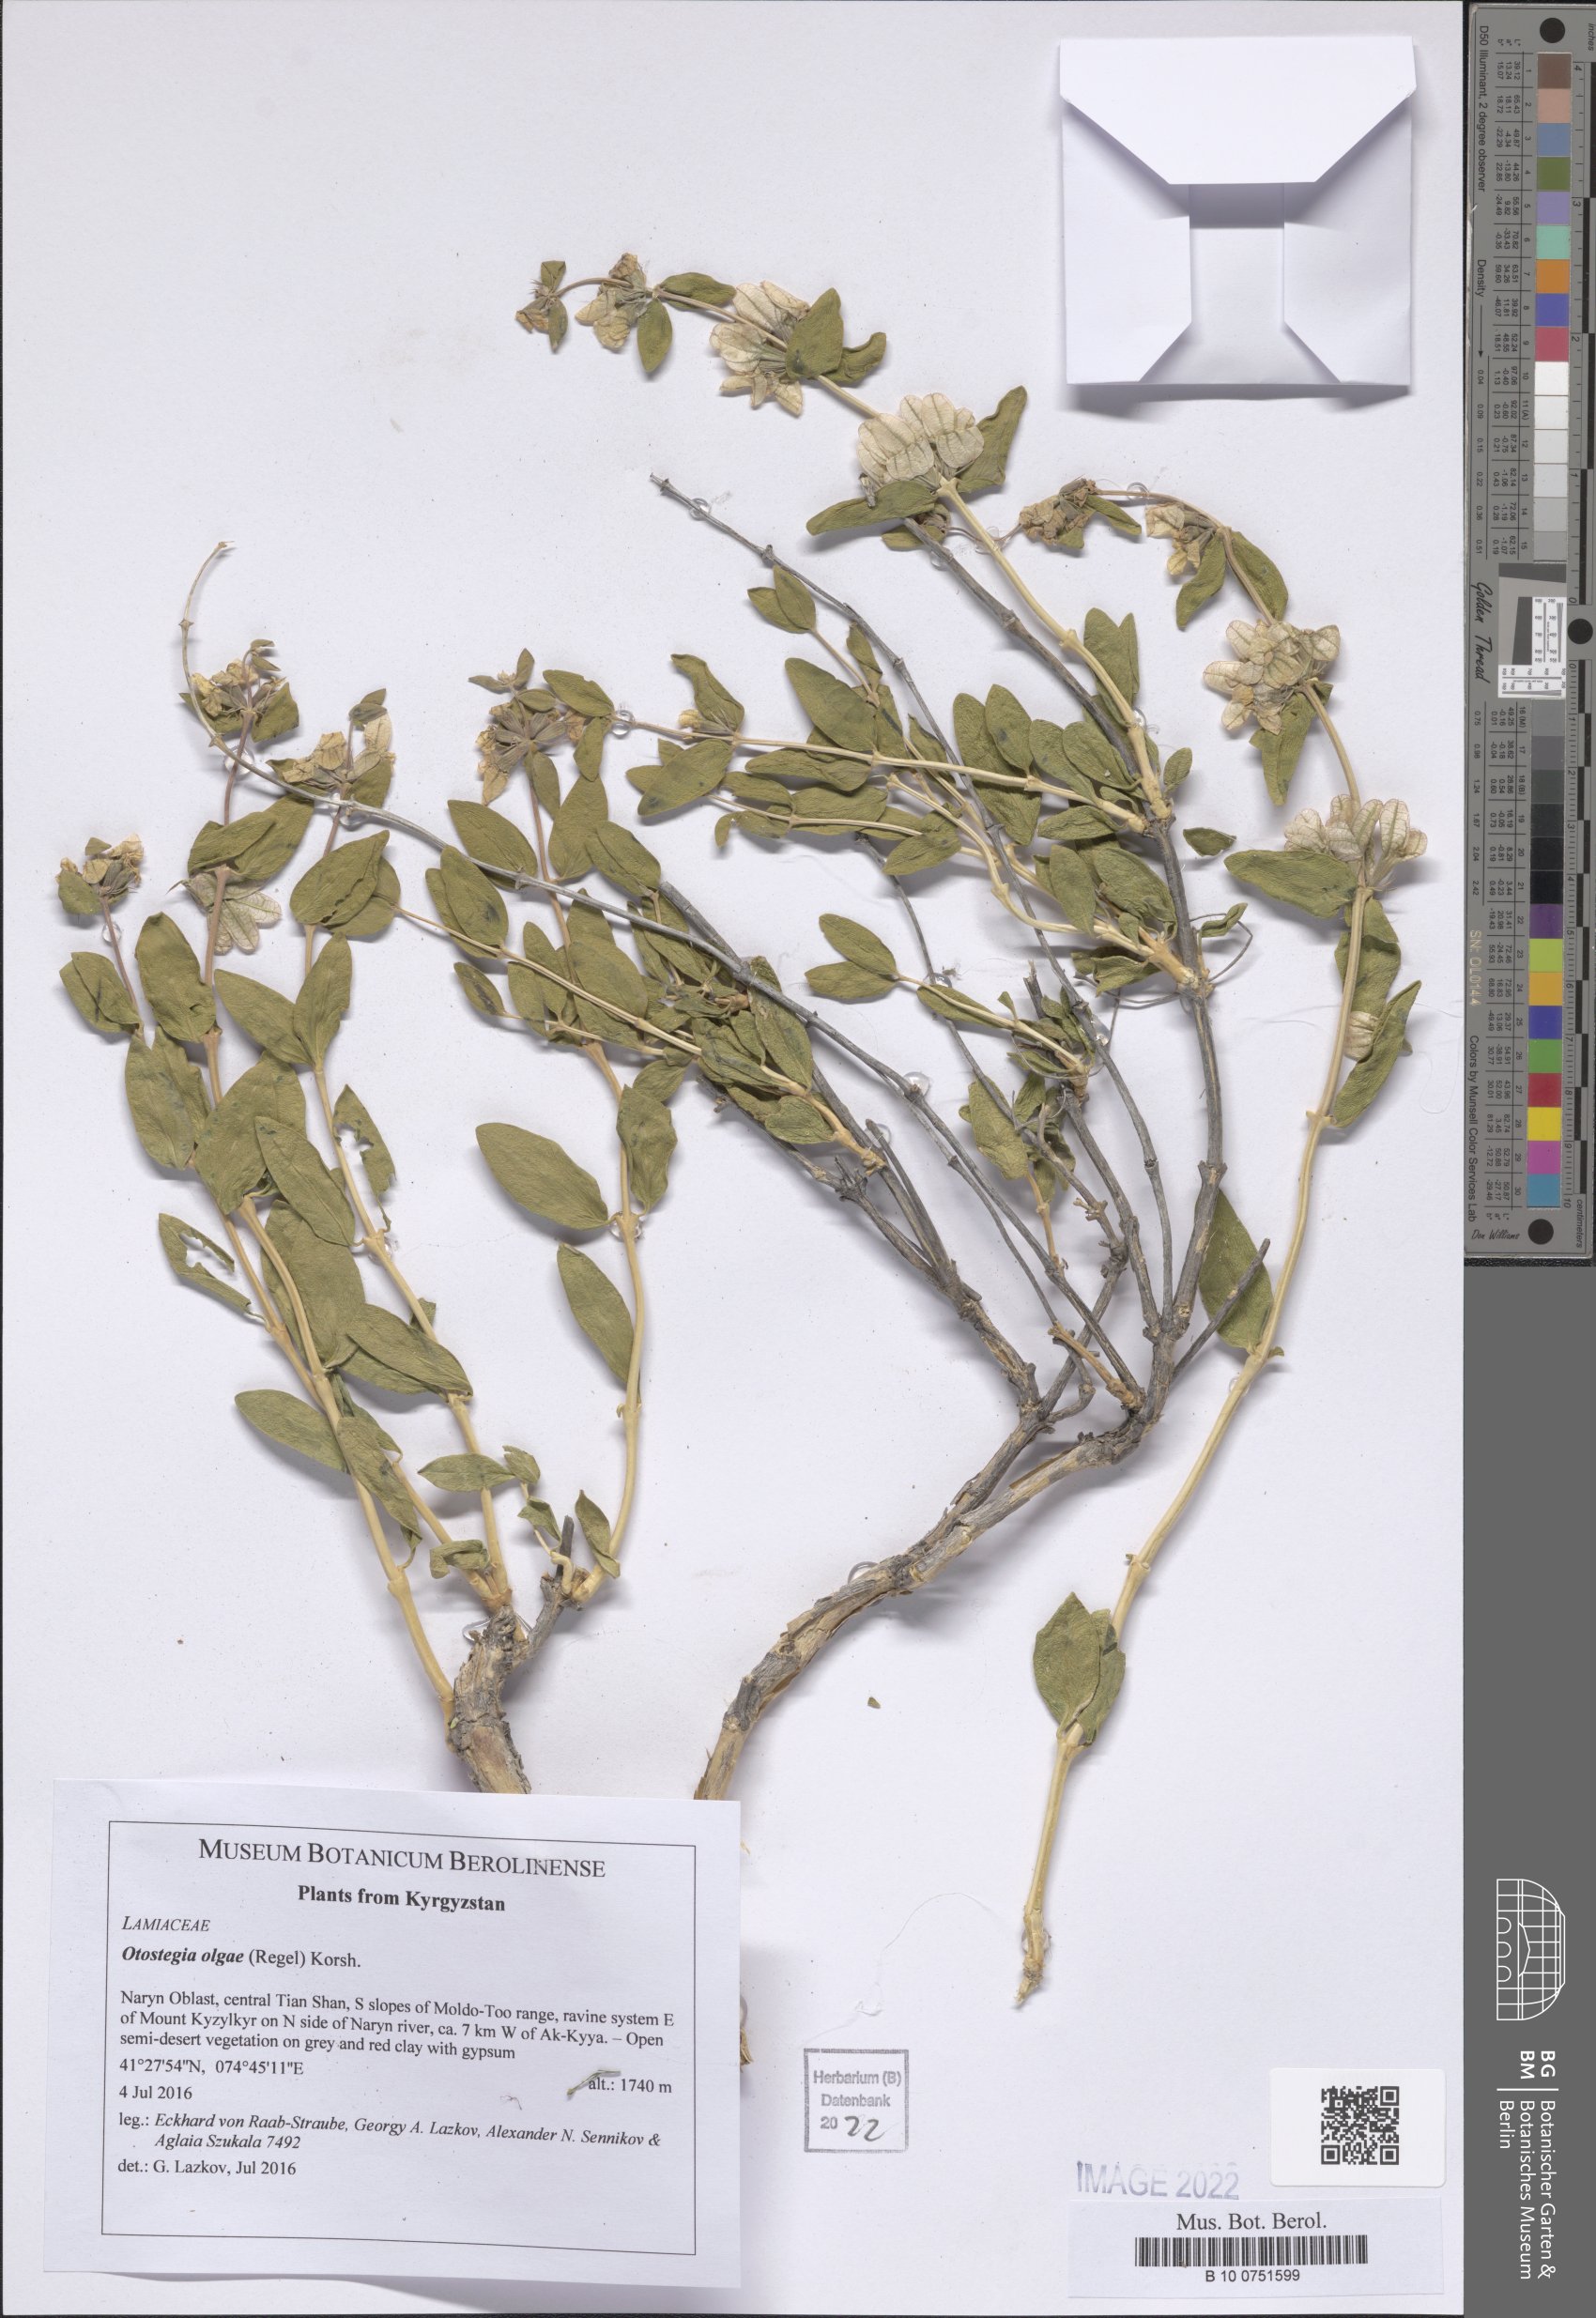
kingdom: Plantae
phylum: Tracheophyta
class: Magnoliopsida
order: Lamiales
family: Lamiaceae
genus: Moluccella
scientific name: Moluccella olgae
